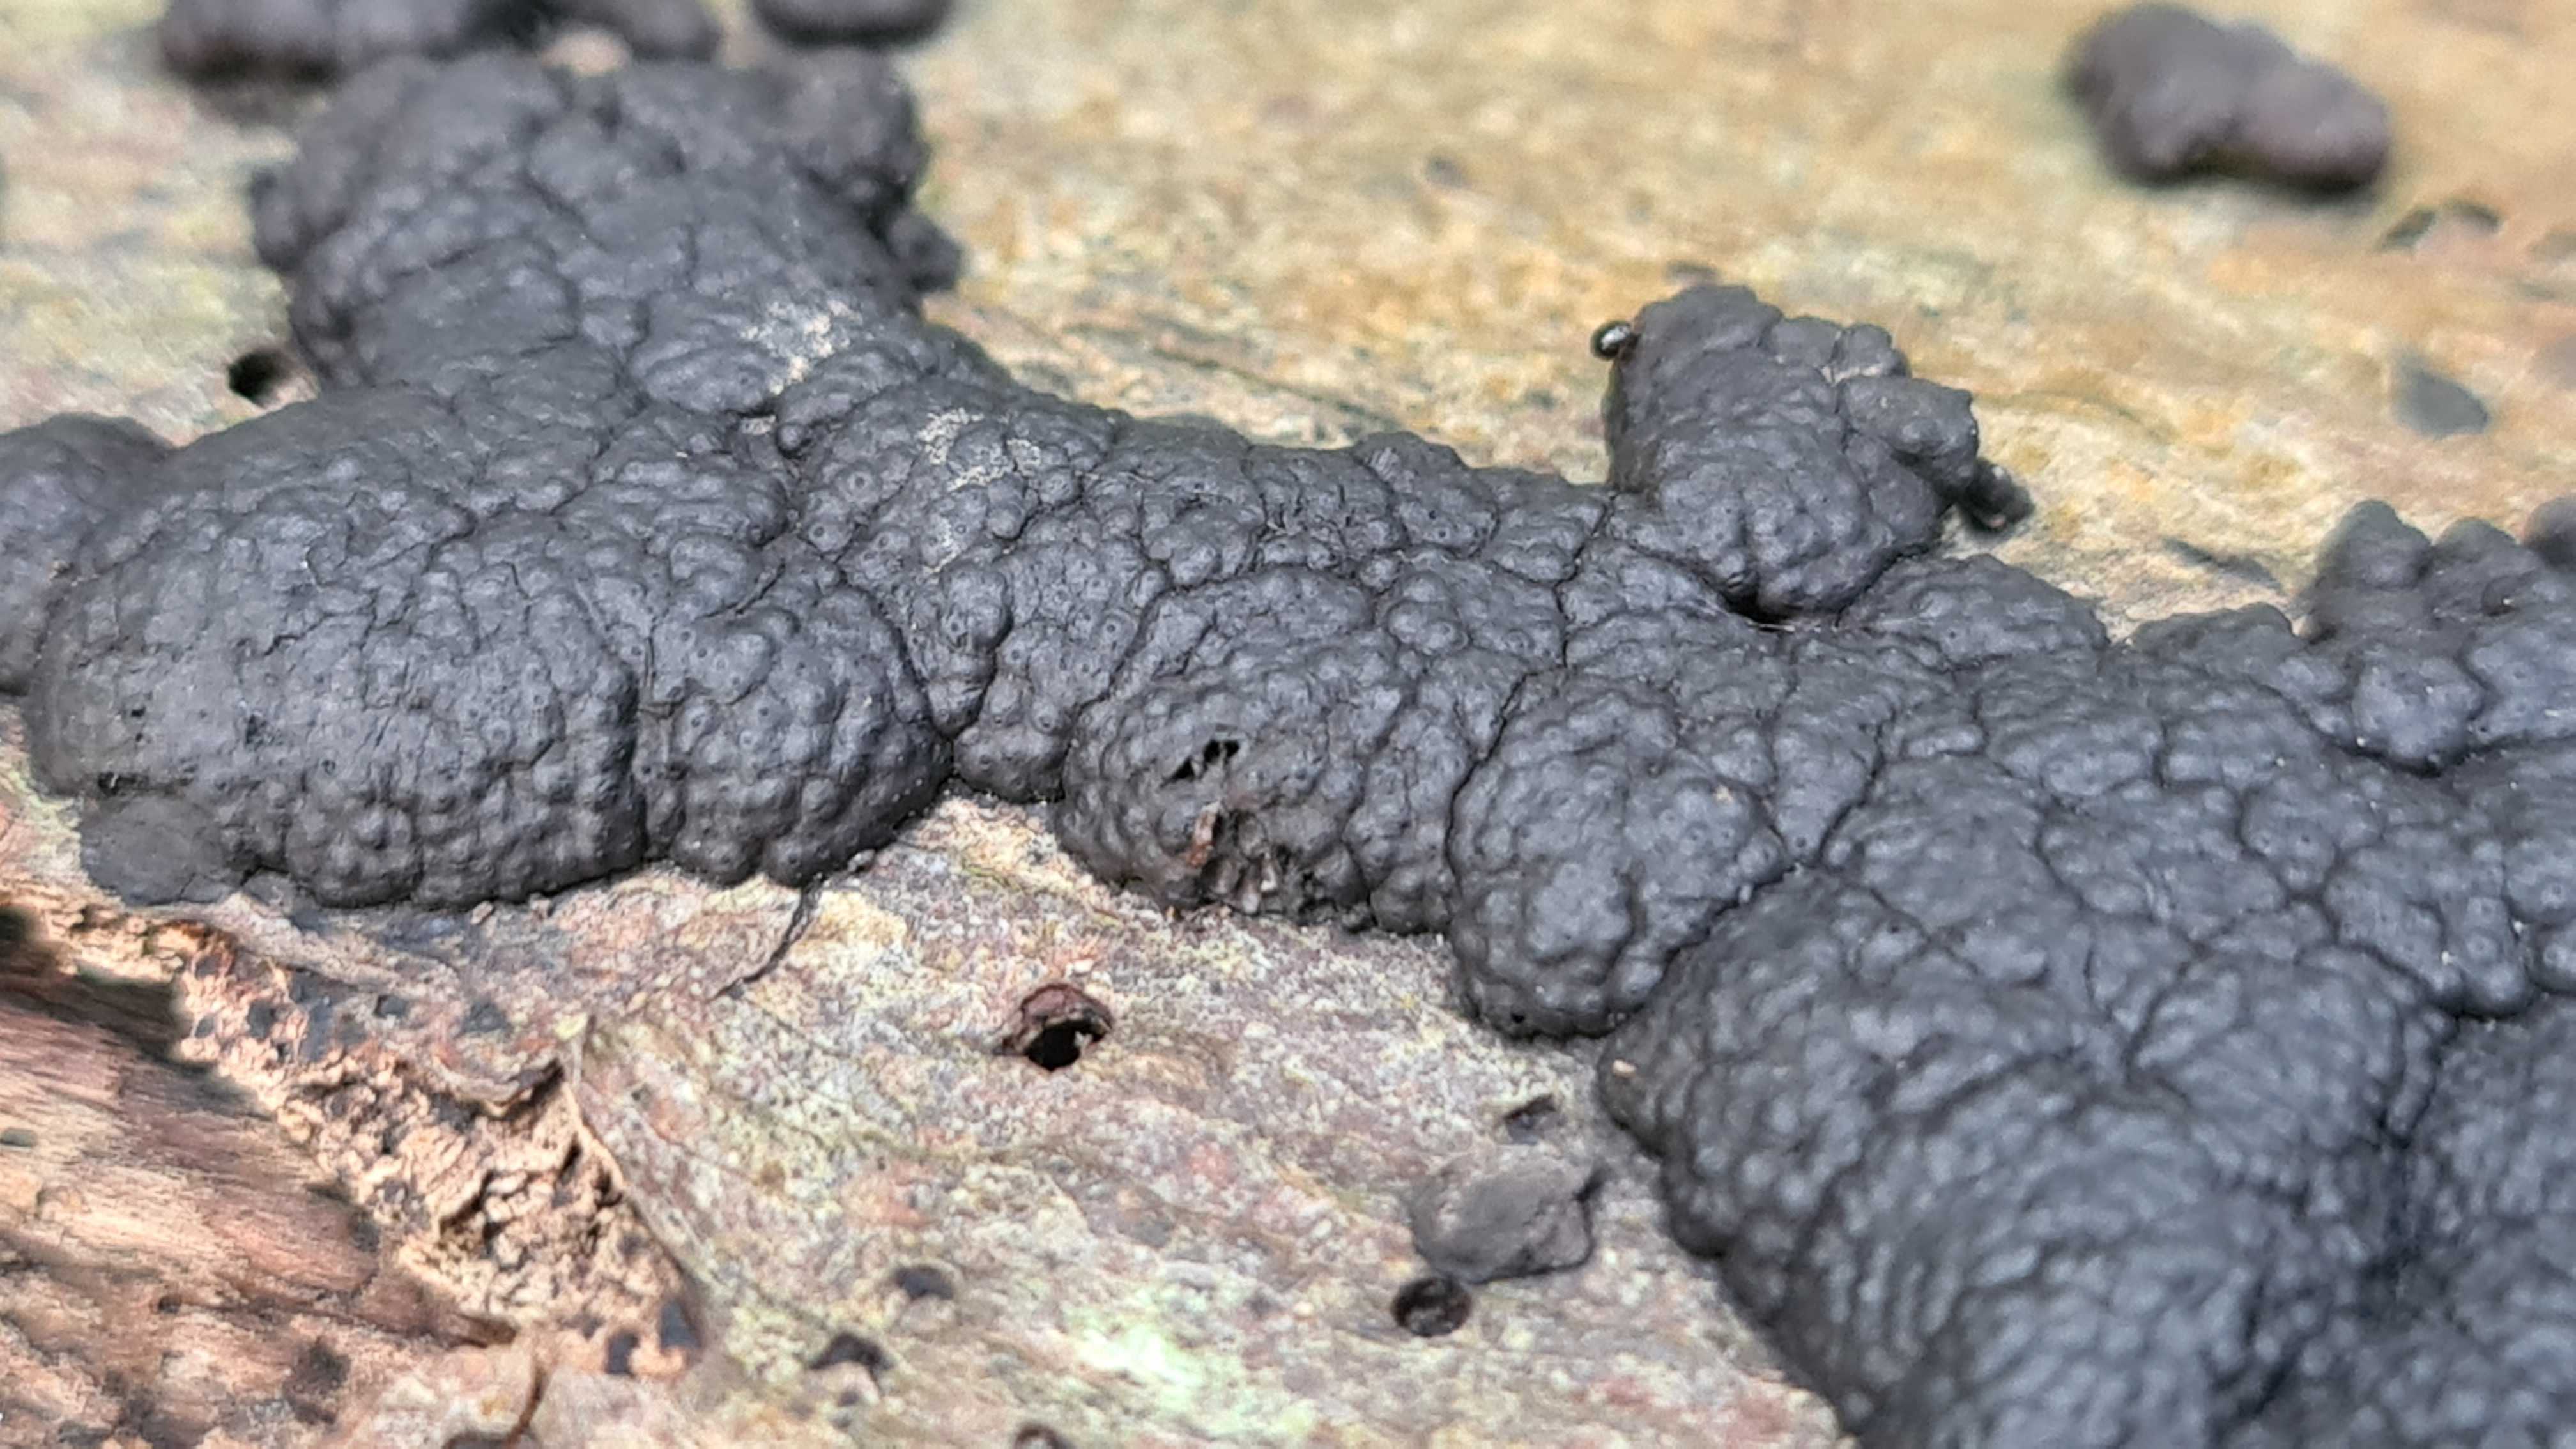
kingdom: Fungi
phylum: Ascomycota
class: Sordariomycetes
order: Xylariales
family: Hypoxylaceae
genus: Jackrogersella
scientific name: Jackrogersella cohaerens
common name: sammenflydende kulbær
